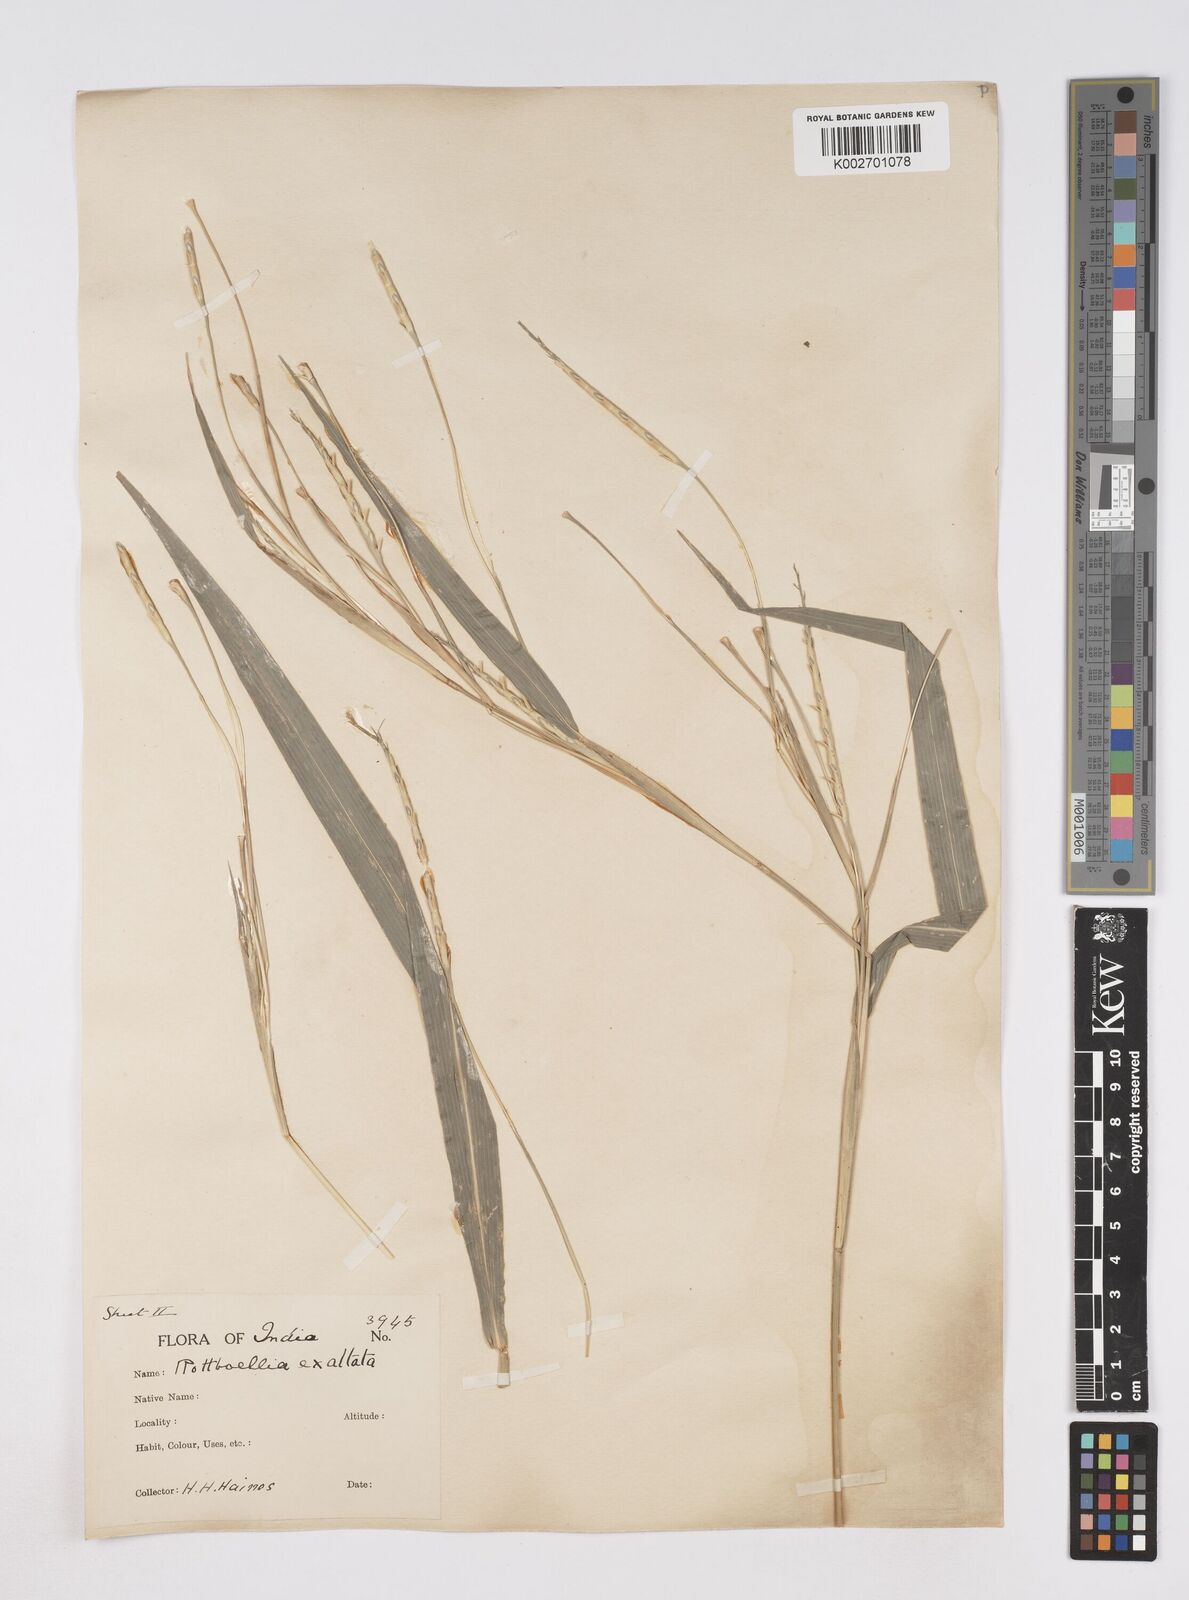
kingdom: Plantae
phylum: Tracheophyta
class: Liliopsida
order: Poales
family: Poaceae
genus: Ophiuros
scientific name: Ophiuros exaltatus
